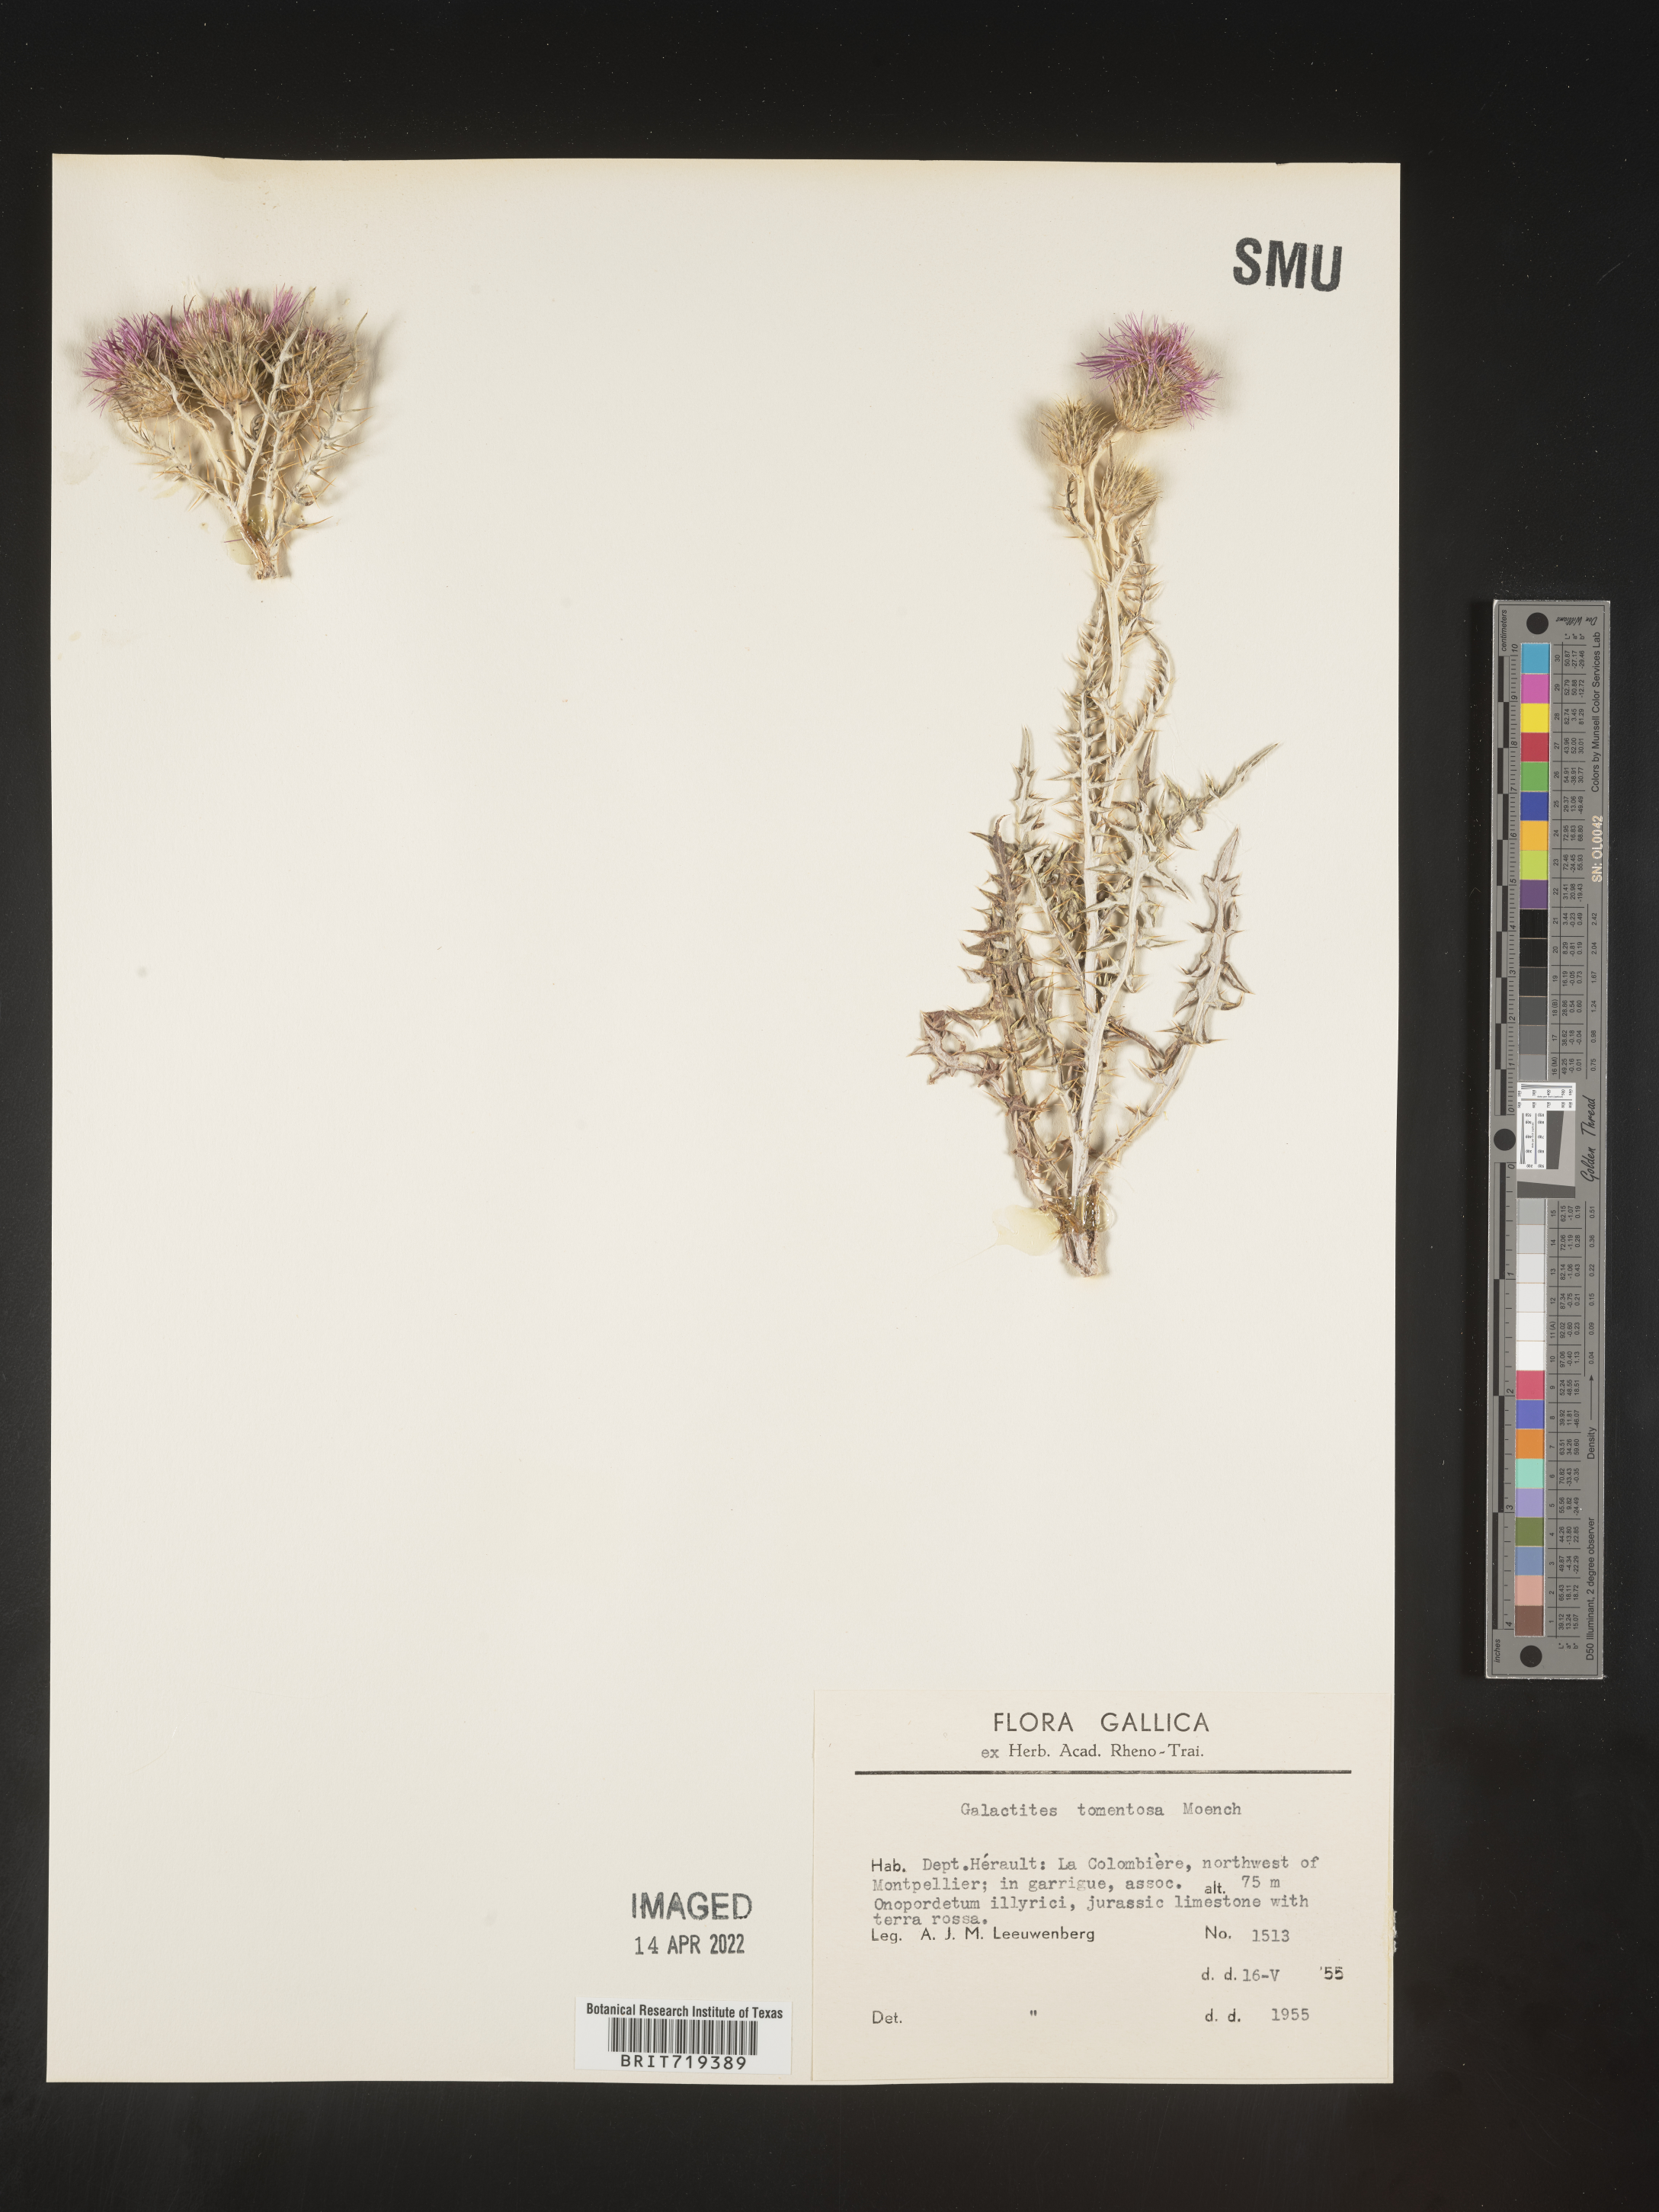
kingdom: Plantae
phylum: Tracheophyta
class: Magnoliopsida
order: Asterales
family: Asteraceae
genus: Galactites
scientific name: Galactites
